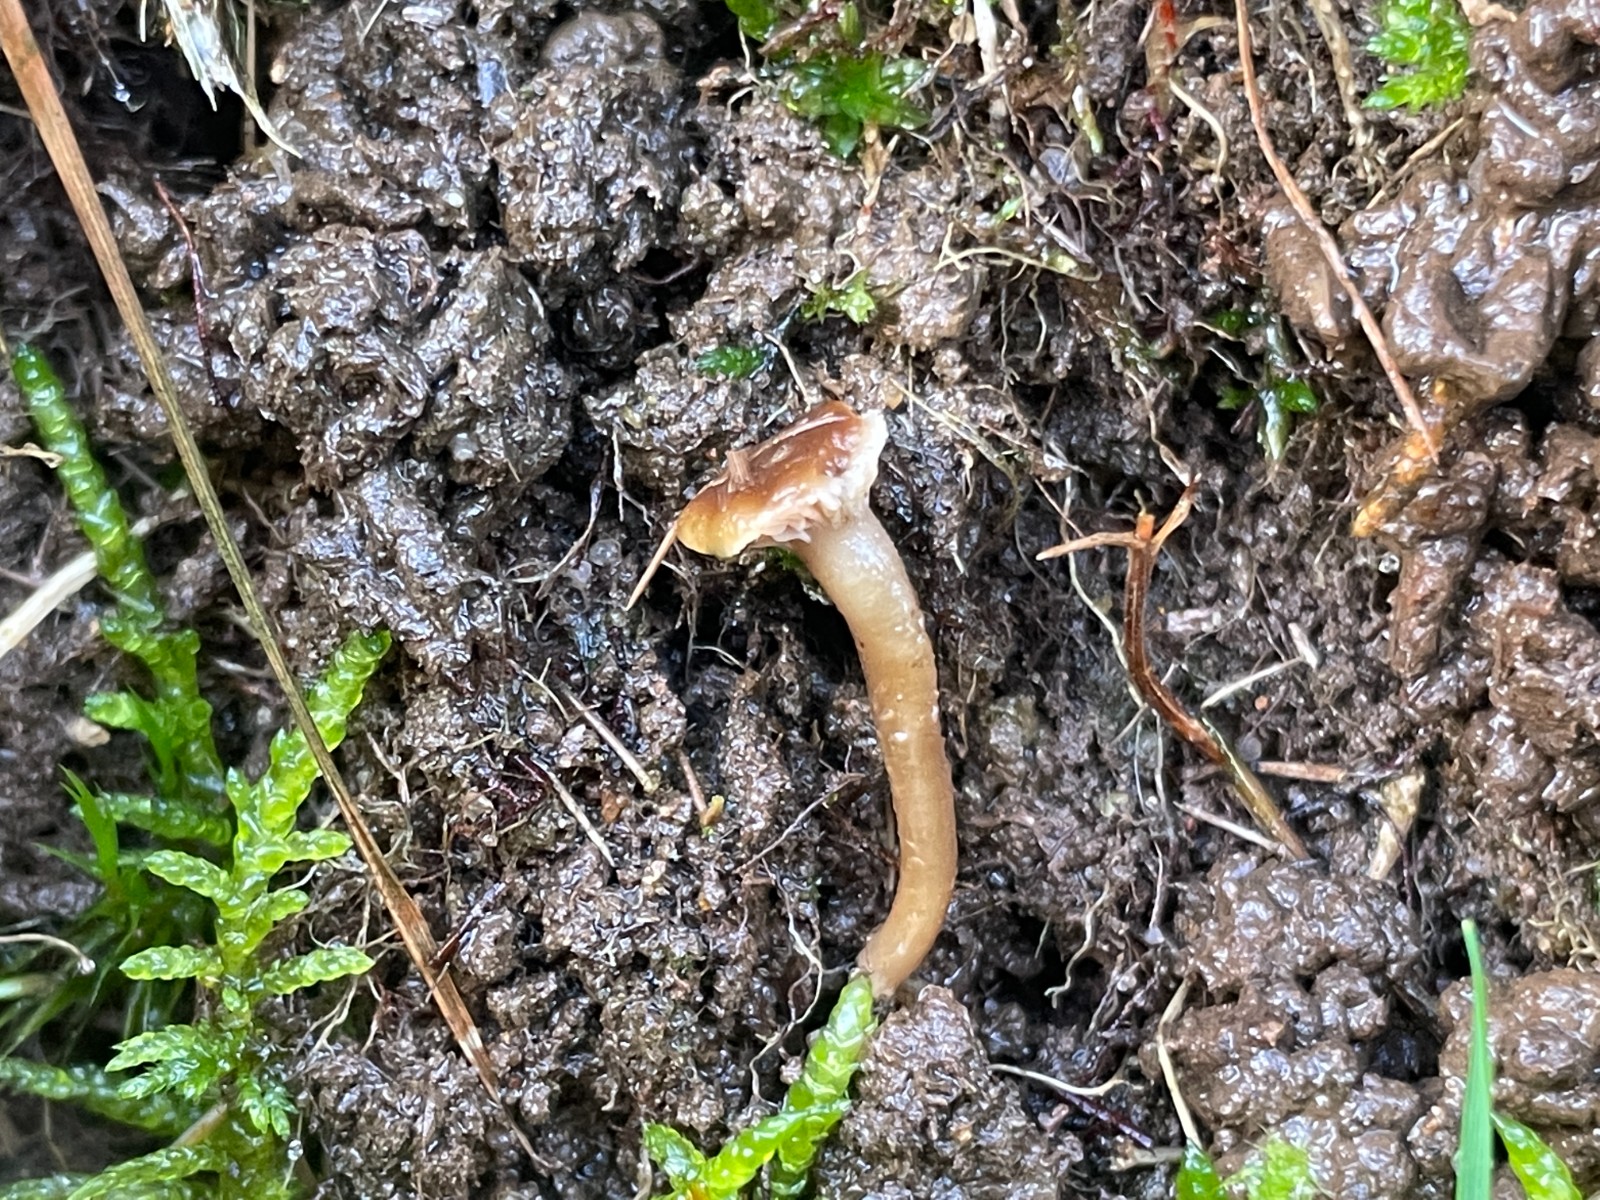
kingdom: Fungi
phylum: Basidiomycota
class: Agaricomycetes
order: Agaricales
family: Clavariaceae
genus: Camarophyllopsis
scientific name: Camarophyllopsis schulzeri
